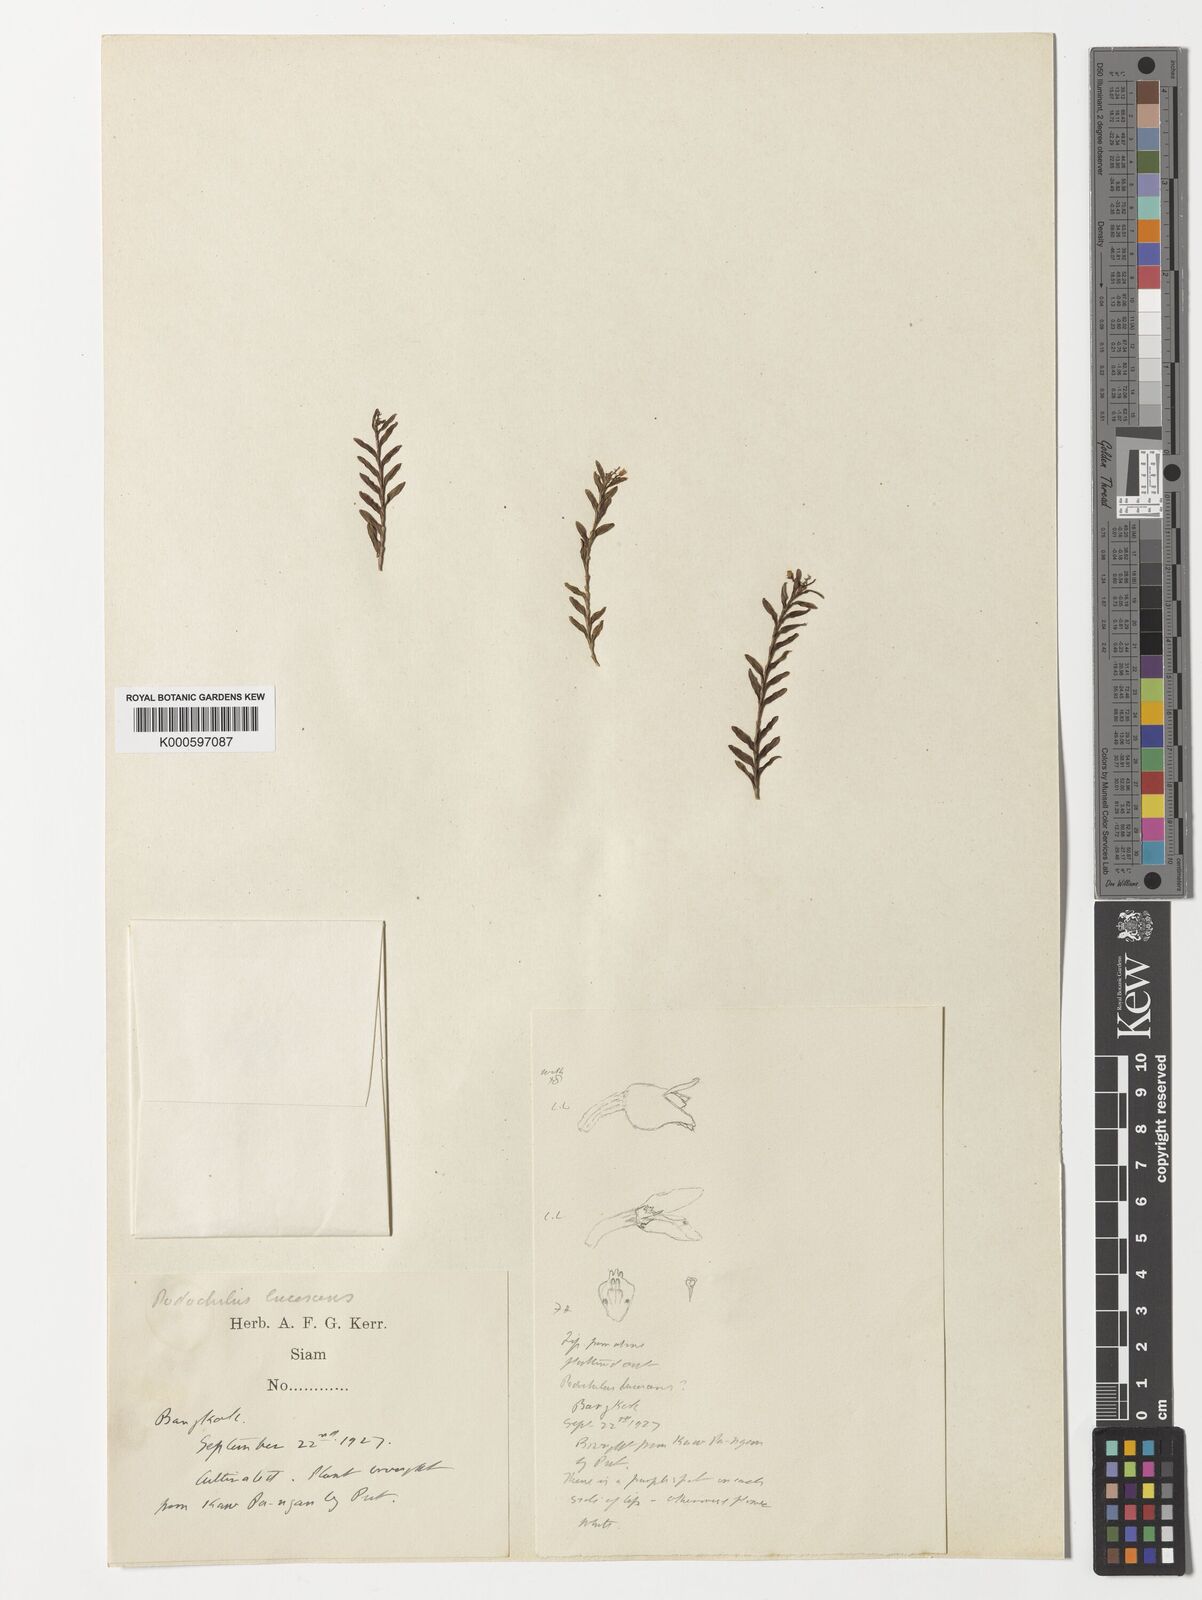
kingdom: Plantae
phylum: Tracheophyta
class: Liliopsida
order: Asparagales
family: Orchidaceae
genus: Podochilus
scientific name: Podochilus lucescens
